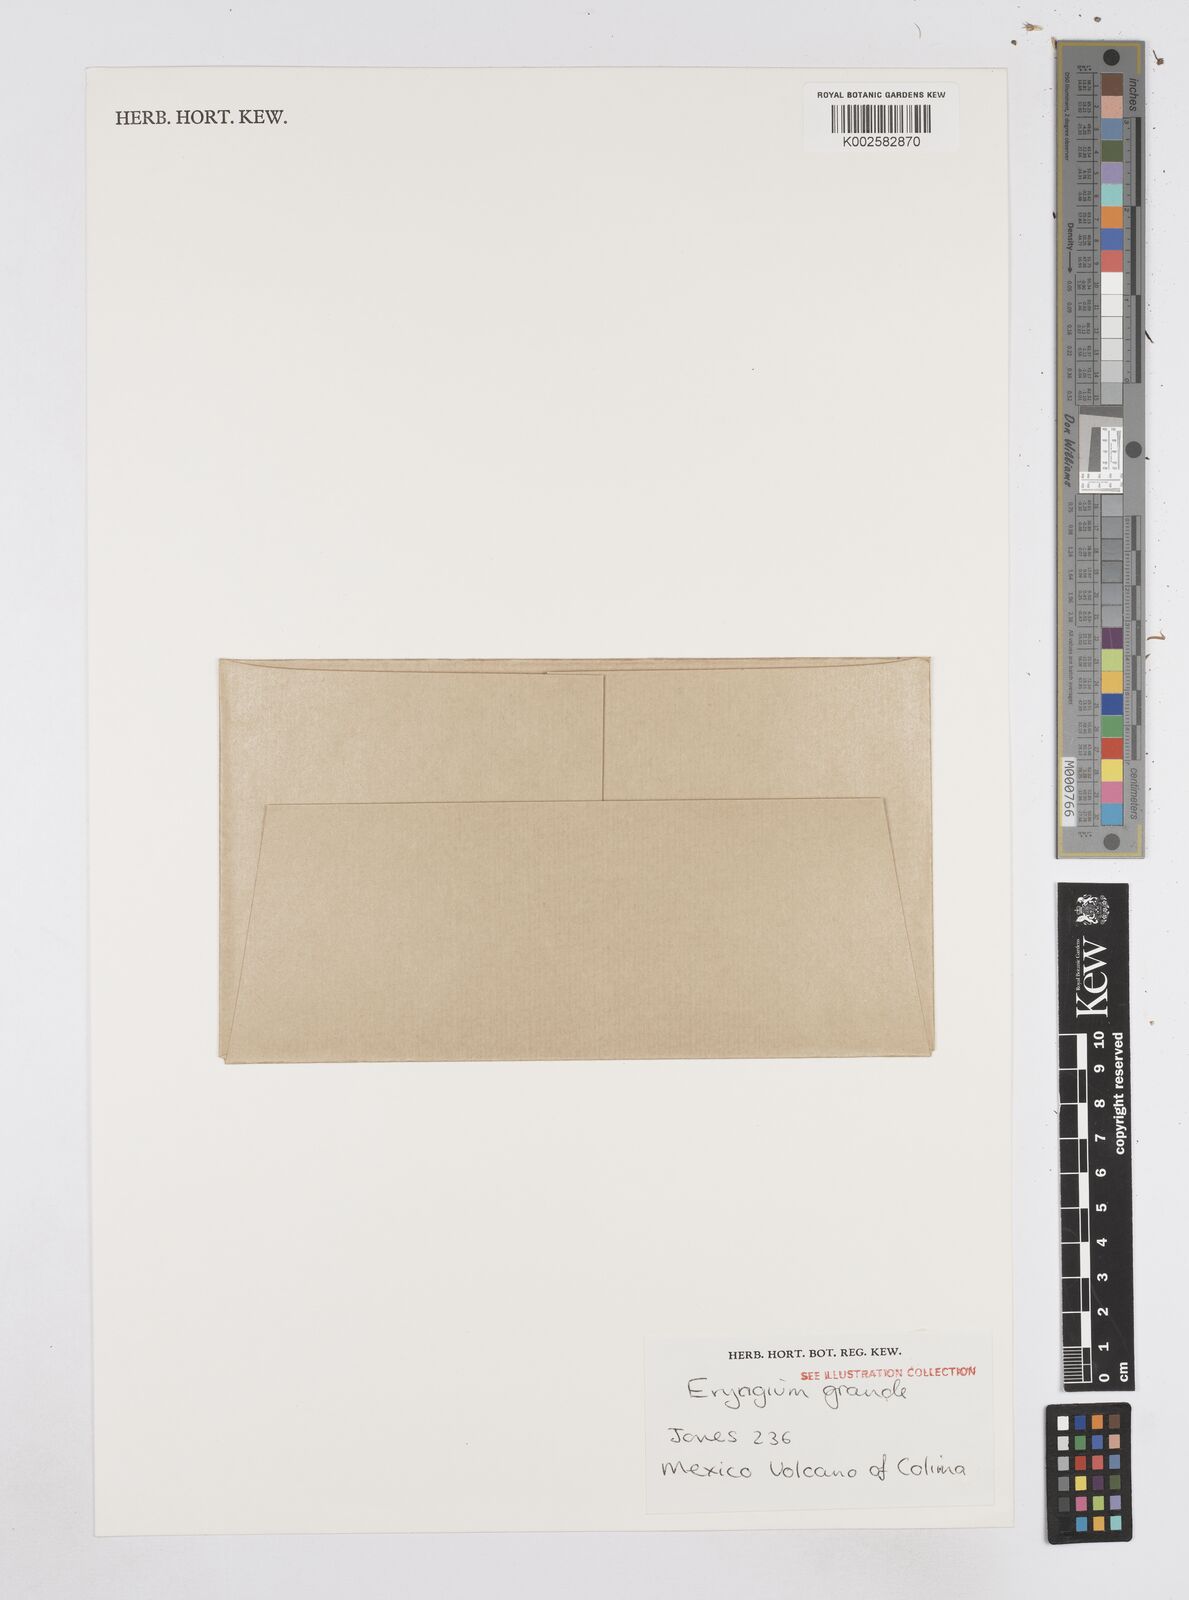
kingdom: Plantae
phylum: Tracheophyta
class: Magnoliopsida
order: Apiales
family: Apiaceae
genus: Eryngium
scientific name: Eryngium humile
